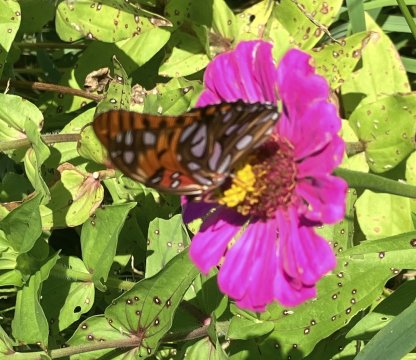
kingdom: Animalia
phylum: Arthropoda
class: Insecta
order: Lepidoptera
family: Nymphalidae
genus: Dione
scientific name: Dione vanillae
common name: Gulf Fritillary
